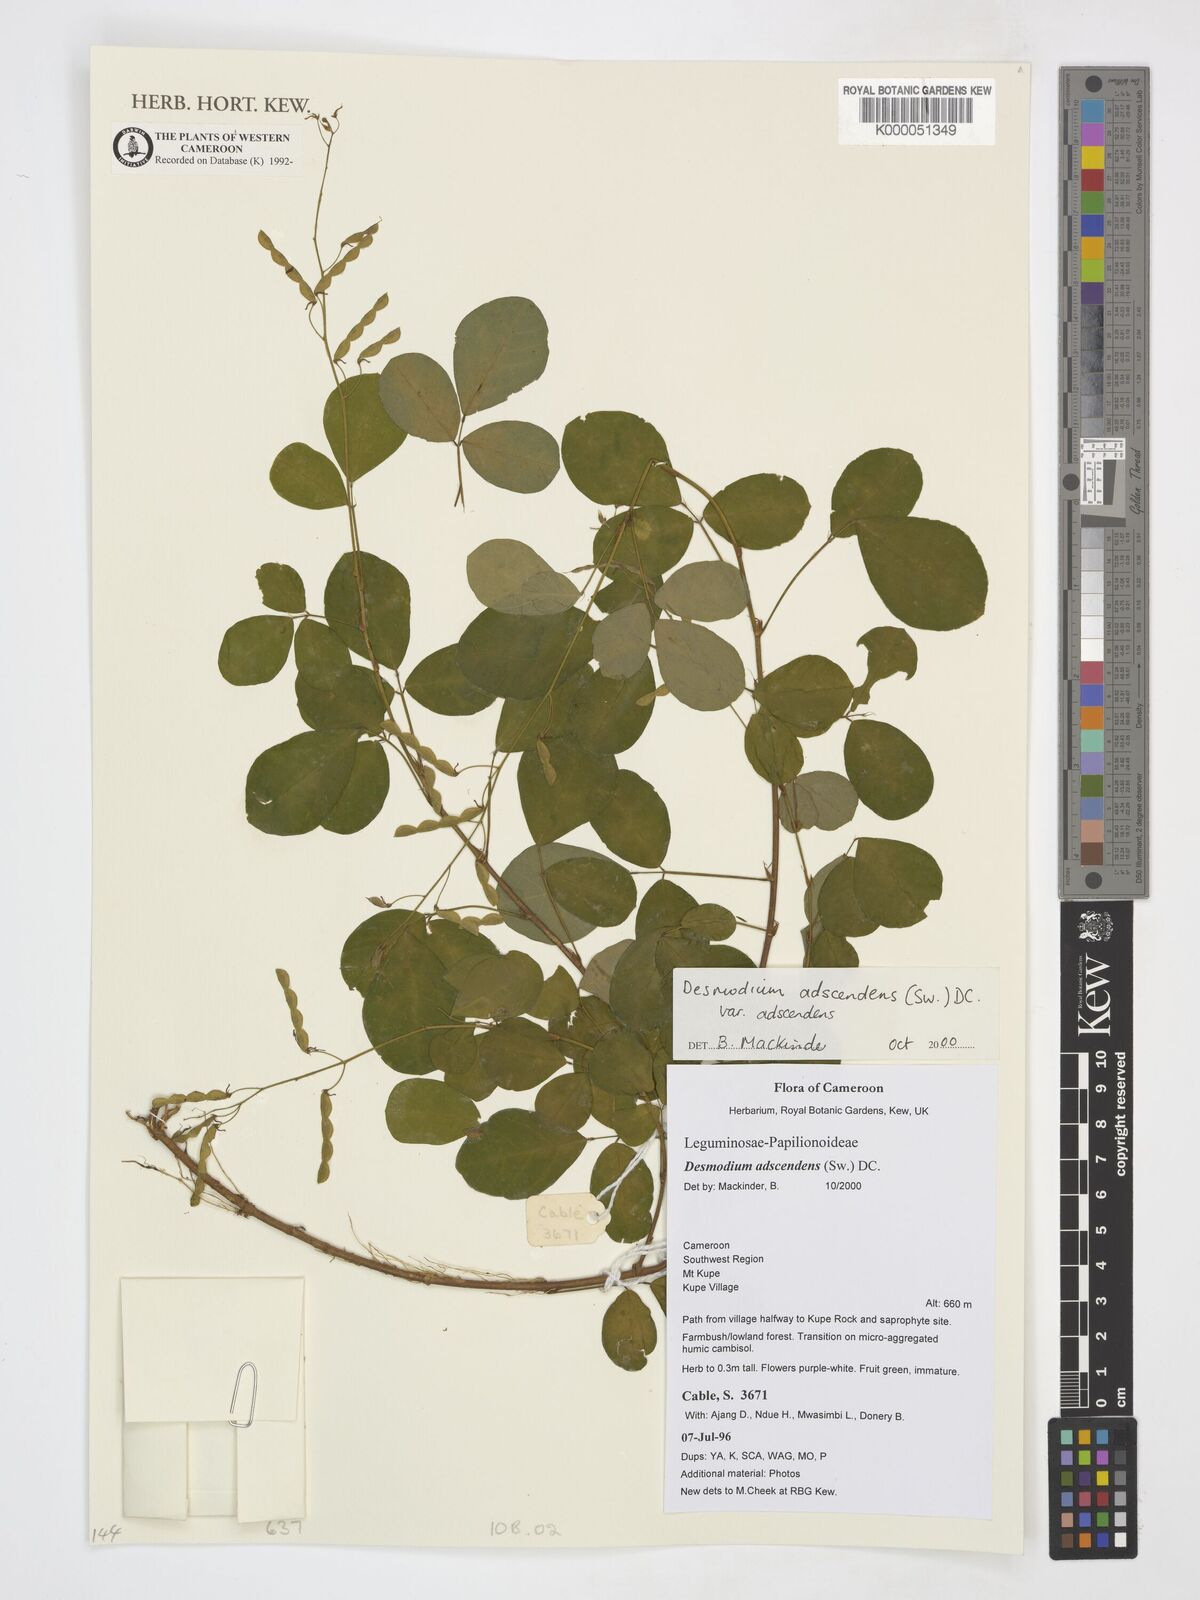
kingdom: Plantae
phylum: Tracheophyta
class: Magnoliopsida
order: Fabales
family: Fabaceae
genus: Grona
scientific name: Grona adscendens
